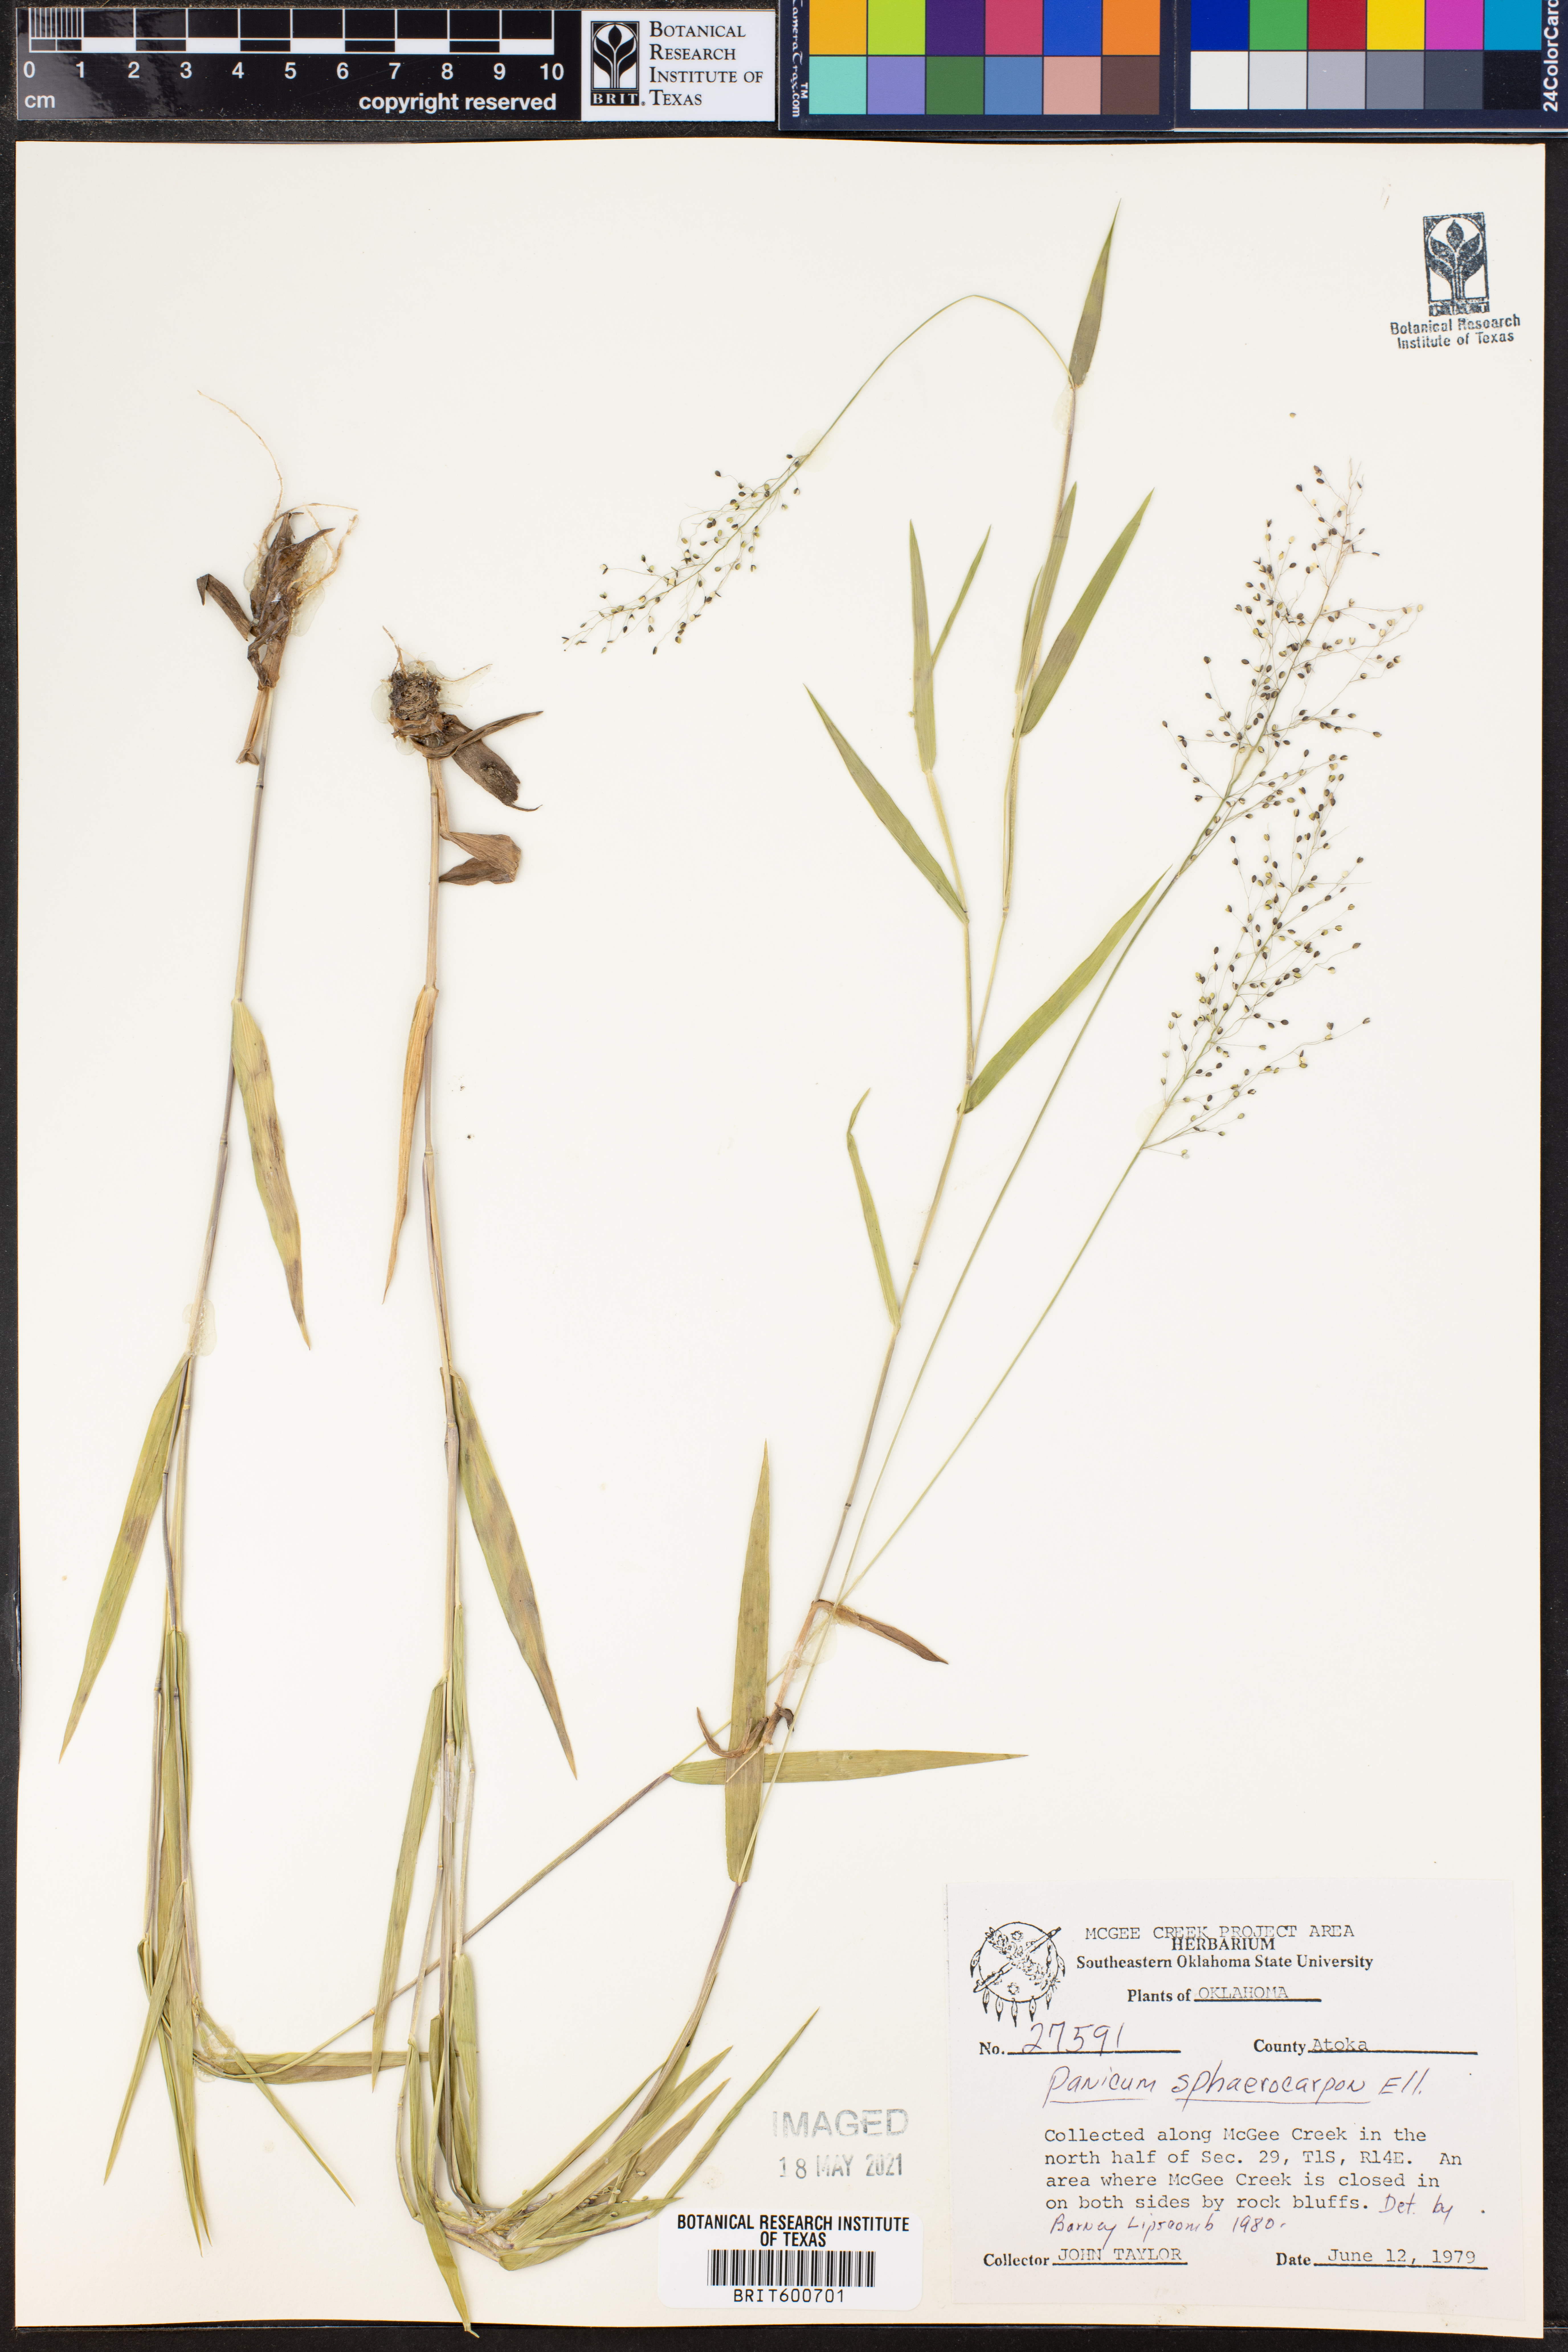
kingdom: Plantae
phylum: Tracheophyta
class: Liliopsida
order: Poales
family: Poaceae
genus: Dichanthelium
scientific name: Dichanthelium sphaerocarpon
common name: Round-fruited panicgrass
